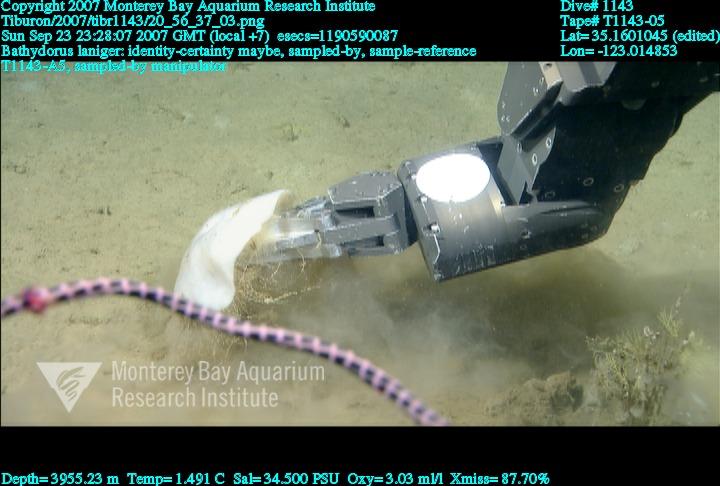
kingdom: Animalia
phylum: Porifera
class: Hexactinellida
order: Lyssacinosida
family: Rossellidae
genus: Bathydorus
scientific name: Bathydorus laniger
